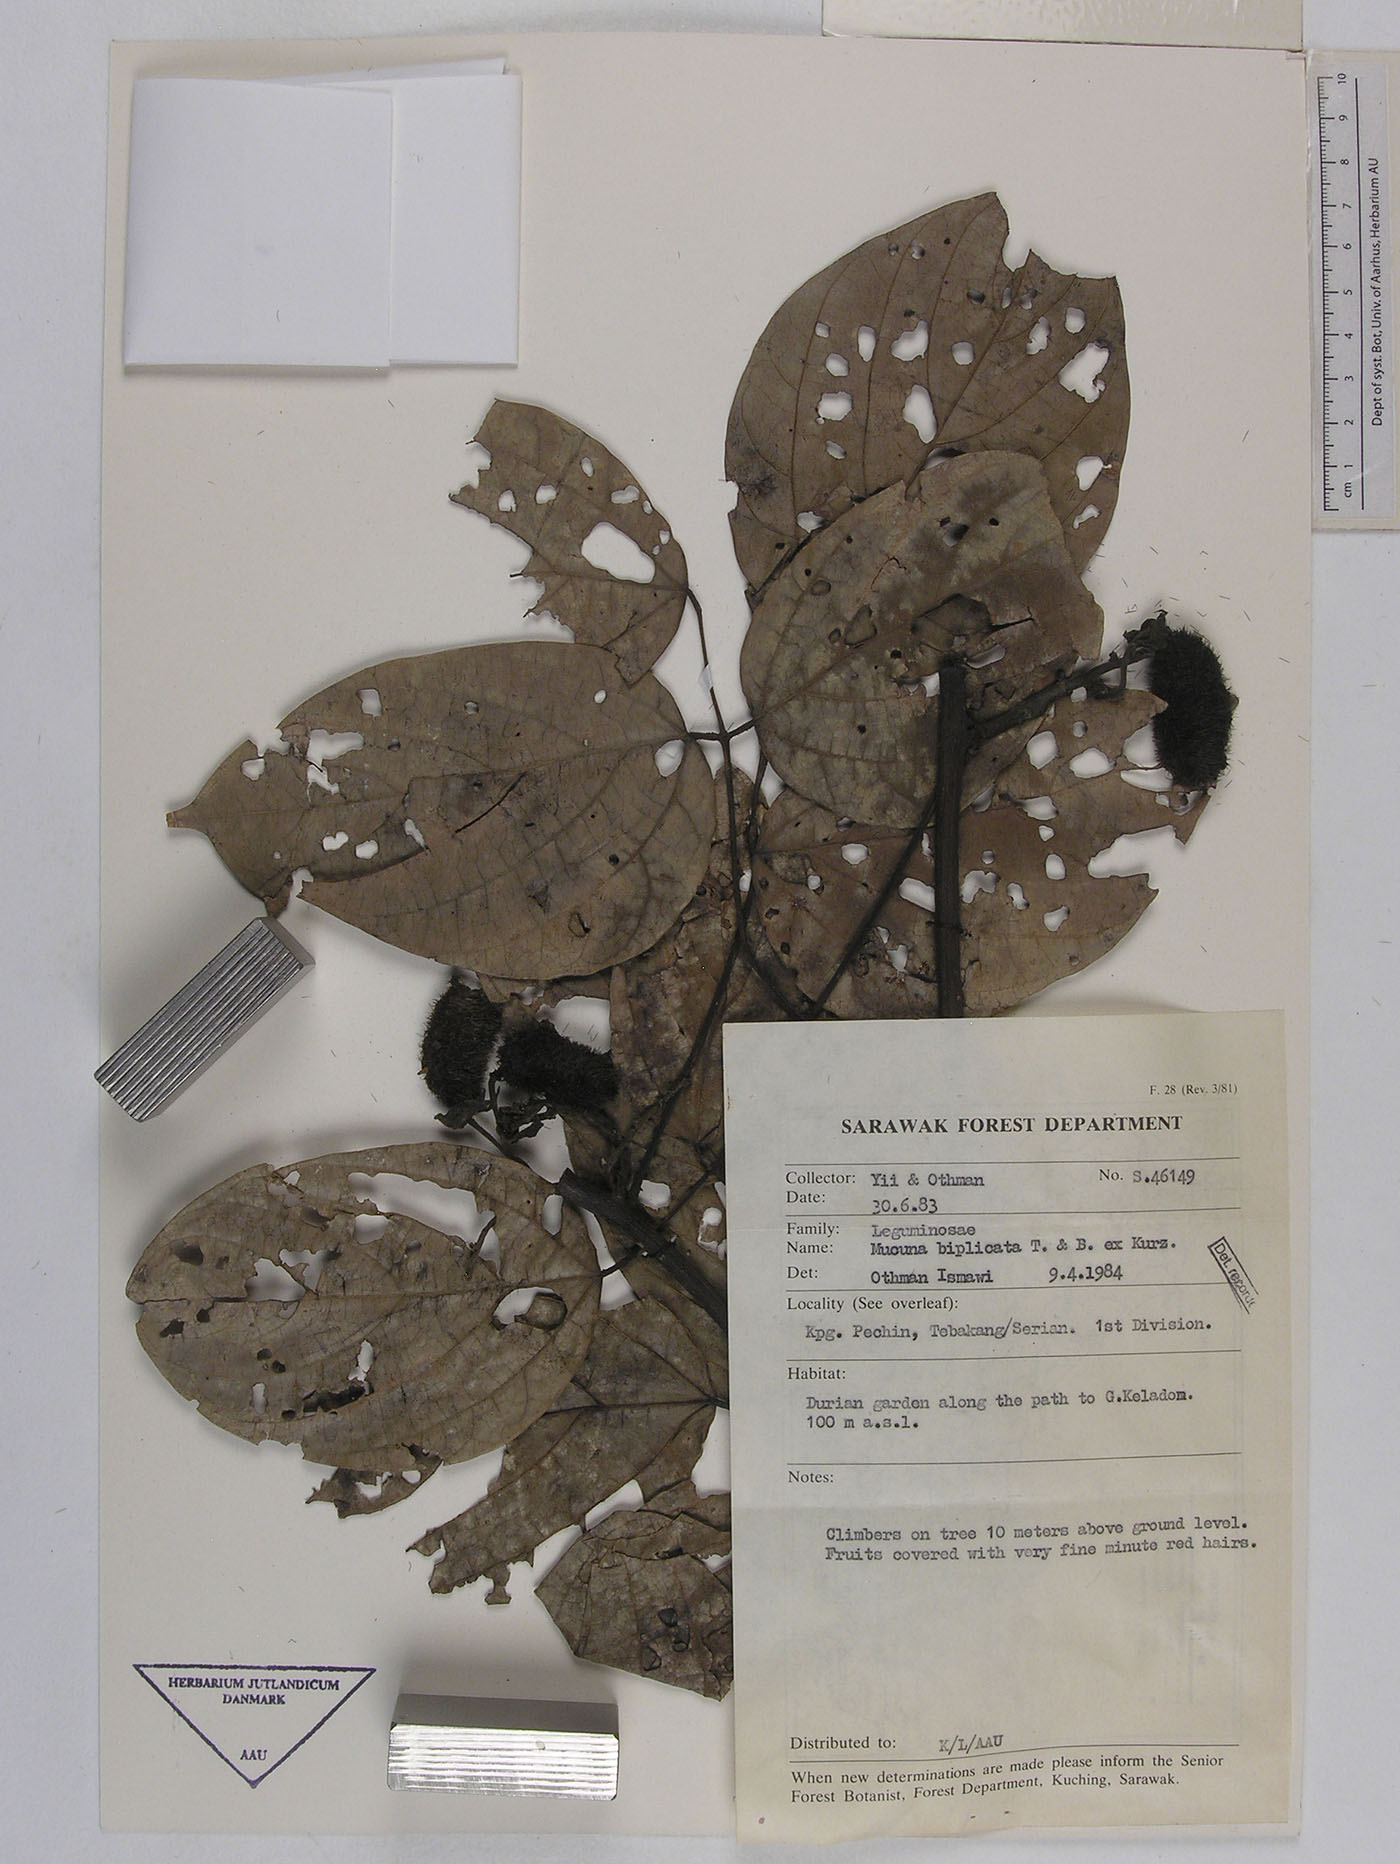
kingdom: Plantae
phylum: Tracheophyta
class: Magnoliopsida
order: Fabales
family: Fabaceae
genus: Mucuna
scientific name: Mucuna biplicata
